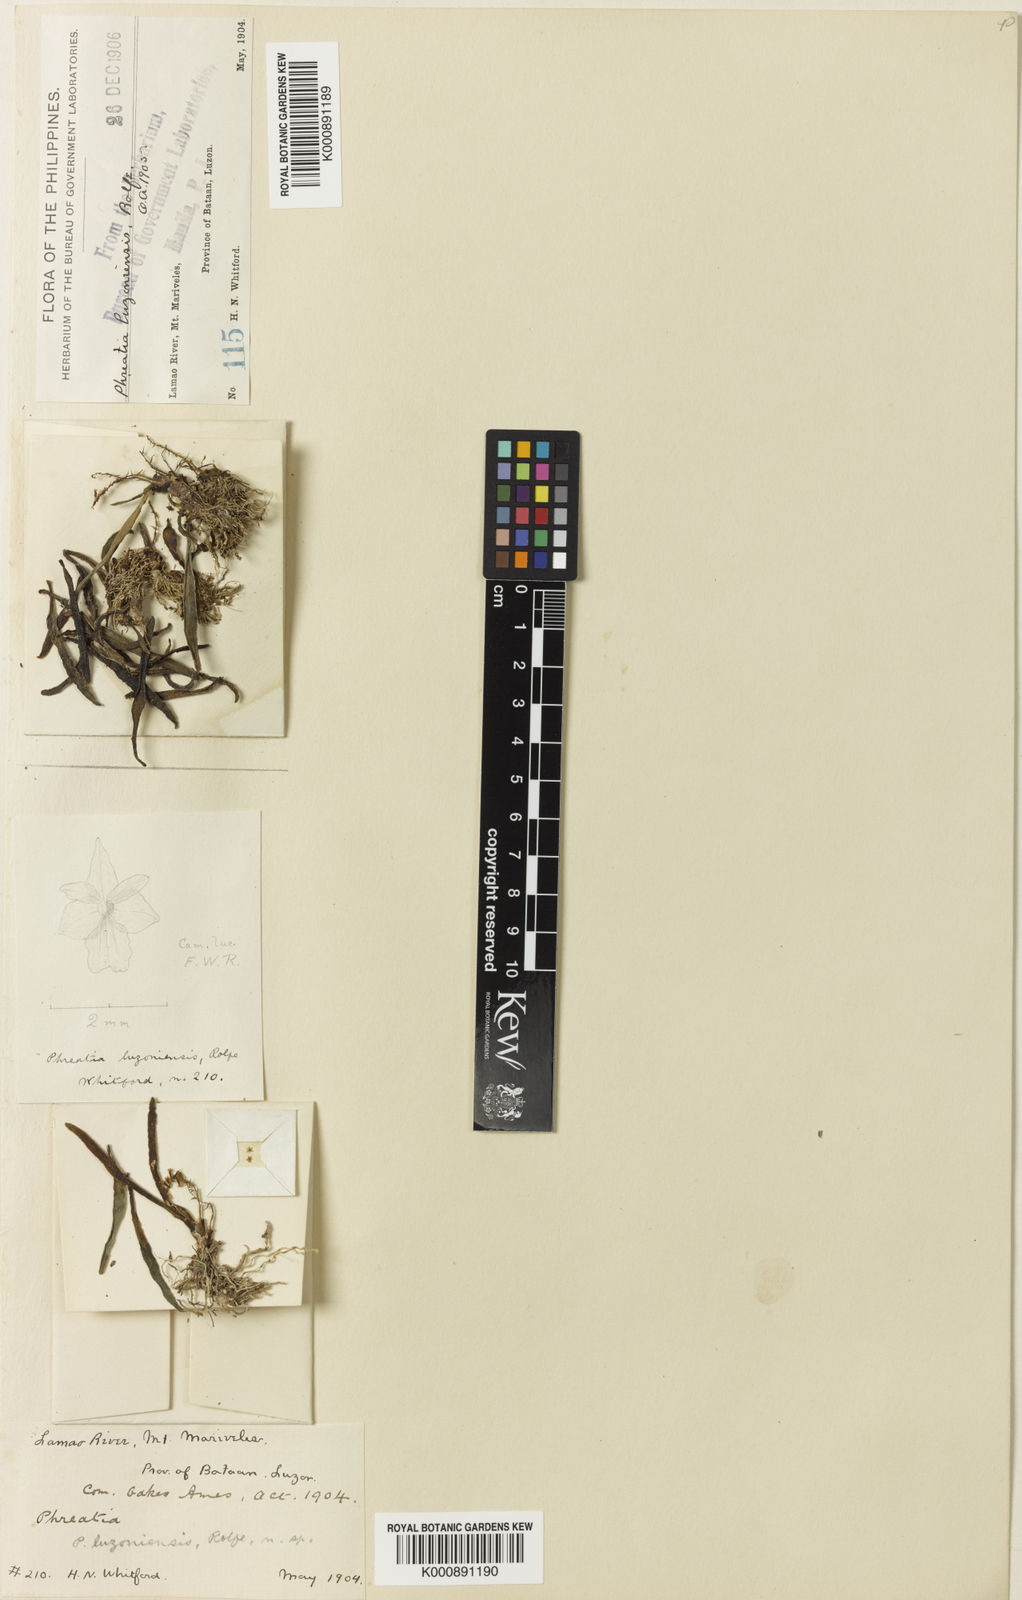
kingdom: Plantae
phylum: Tracheophyta
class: Liliopsida
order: Asparagales
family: Orchidaceae
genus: Phreatia
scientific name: Phreatia
